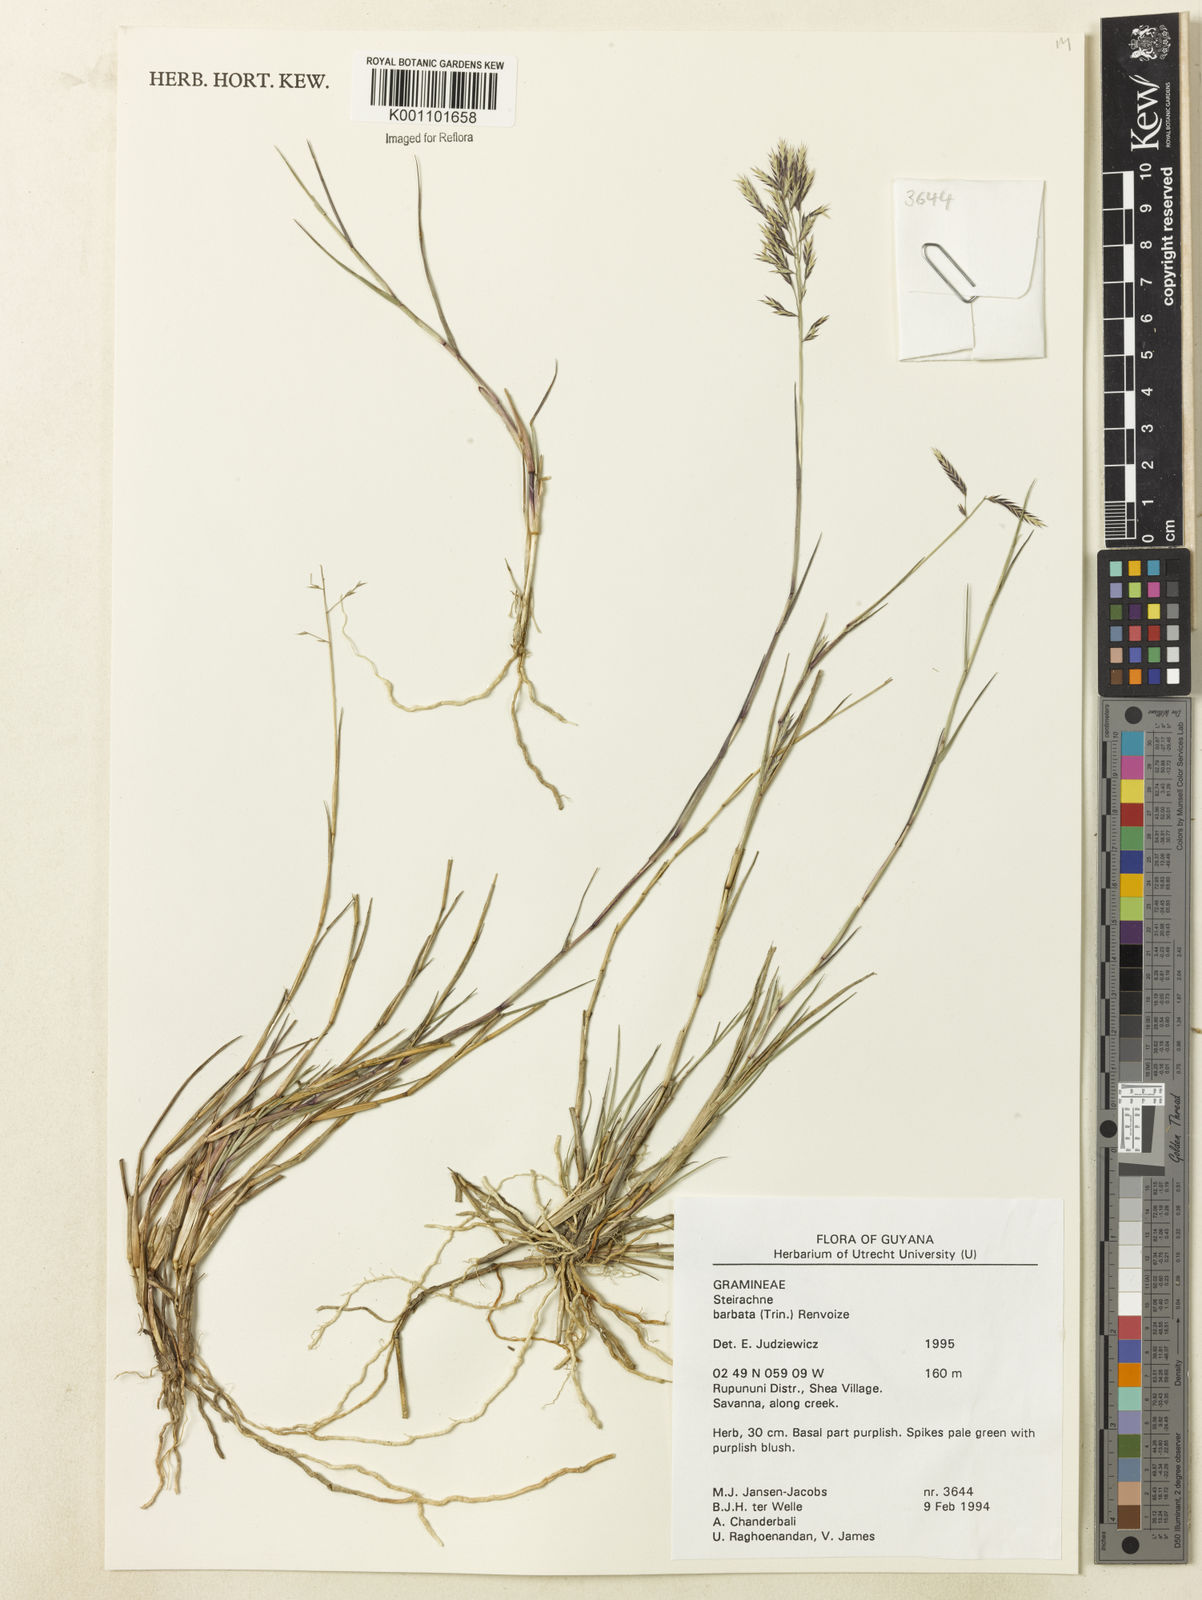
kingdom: Plantae
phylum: Tracheophyta
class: Liliopsida
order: Poales
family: Poaceae
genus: Steirachne
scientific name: Steirachne barbata
